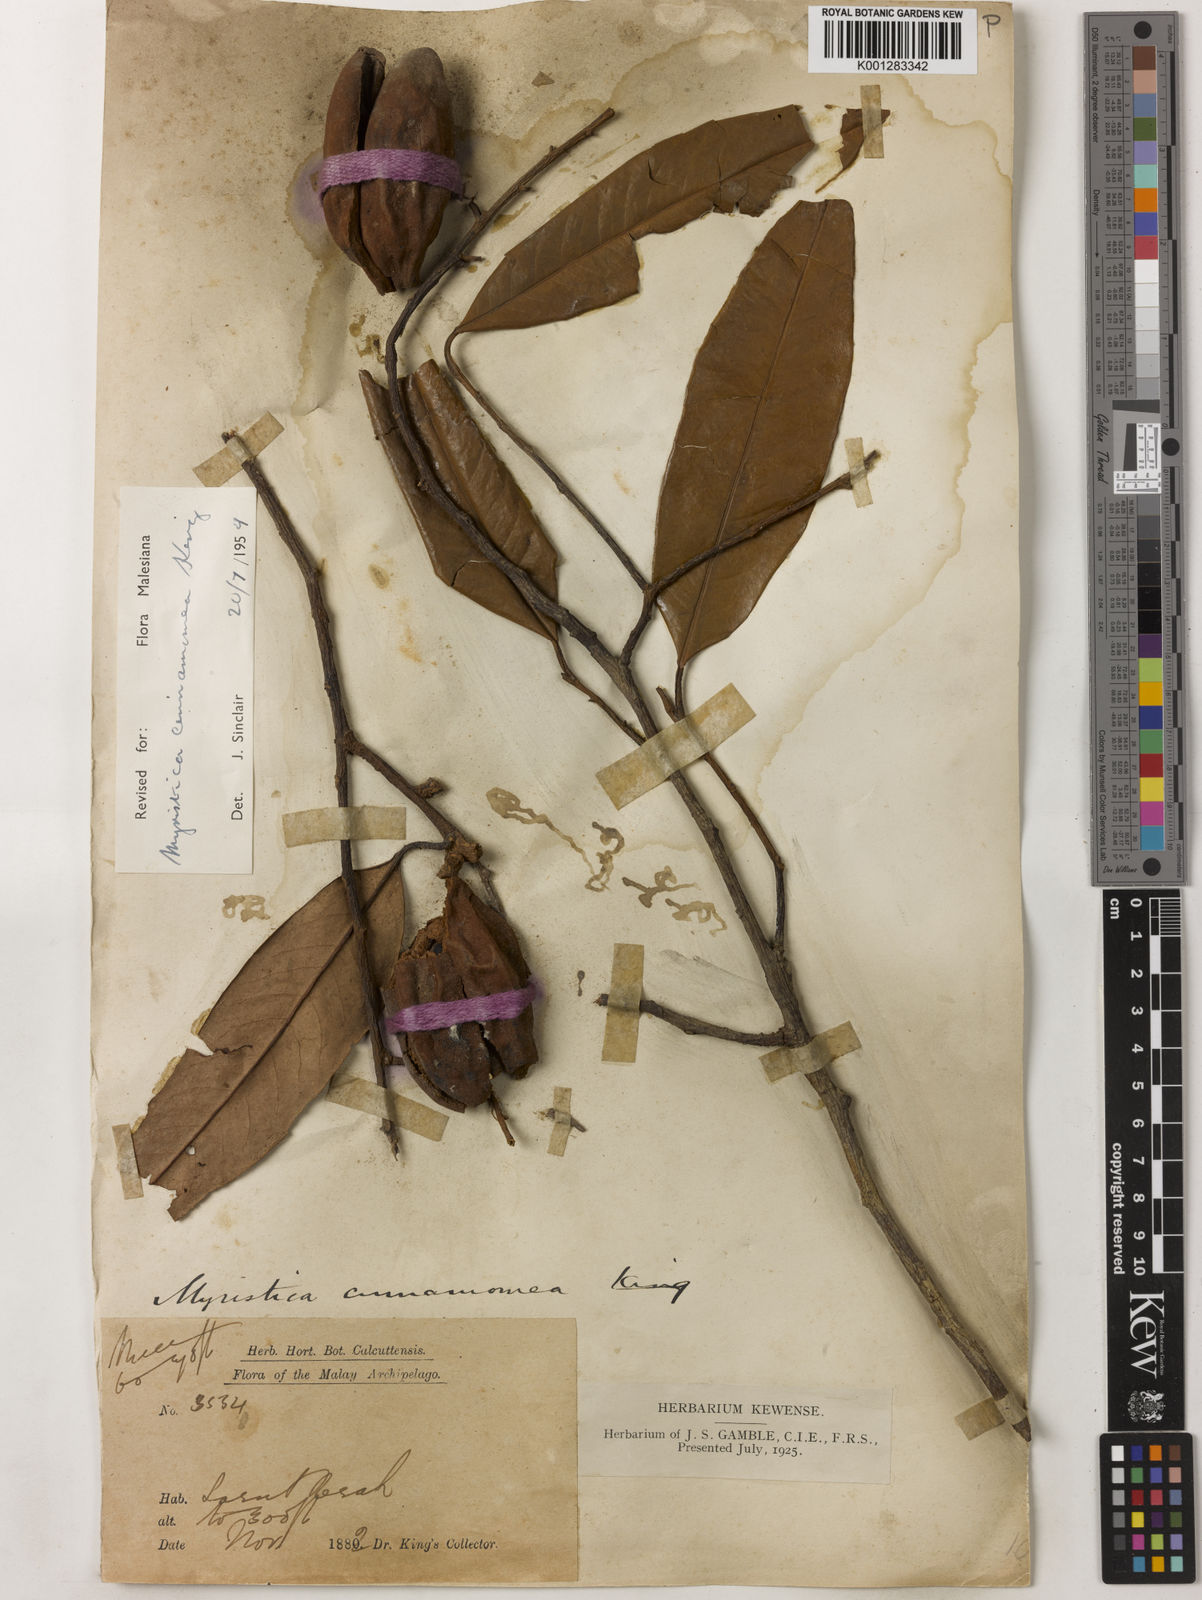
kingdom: Plantae
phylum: Tracheophyta
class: Magnoliopsida
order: Magnoliales
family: Myristicaceae
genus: Myristica
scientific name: Myristica cinnamomea
